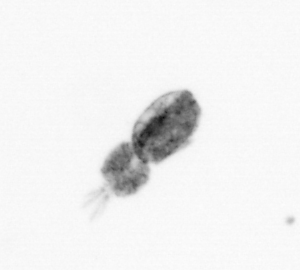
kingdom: Animalia
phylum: Arthropoda
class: Copepoda
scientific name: Copepoda
